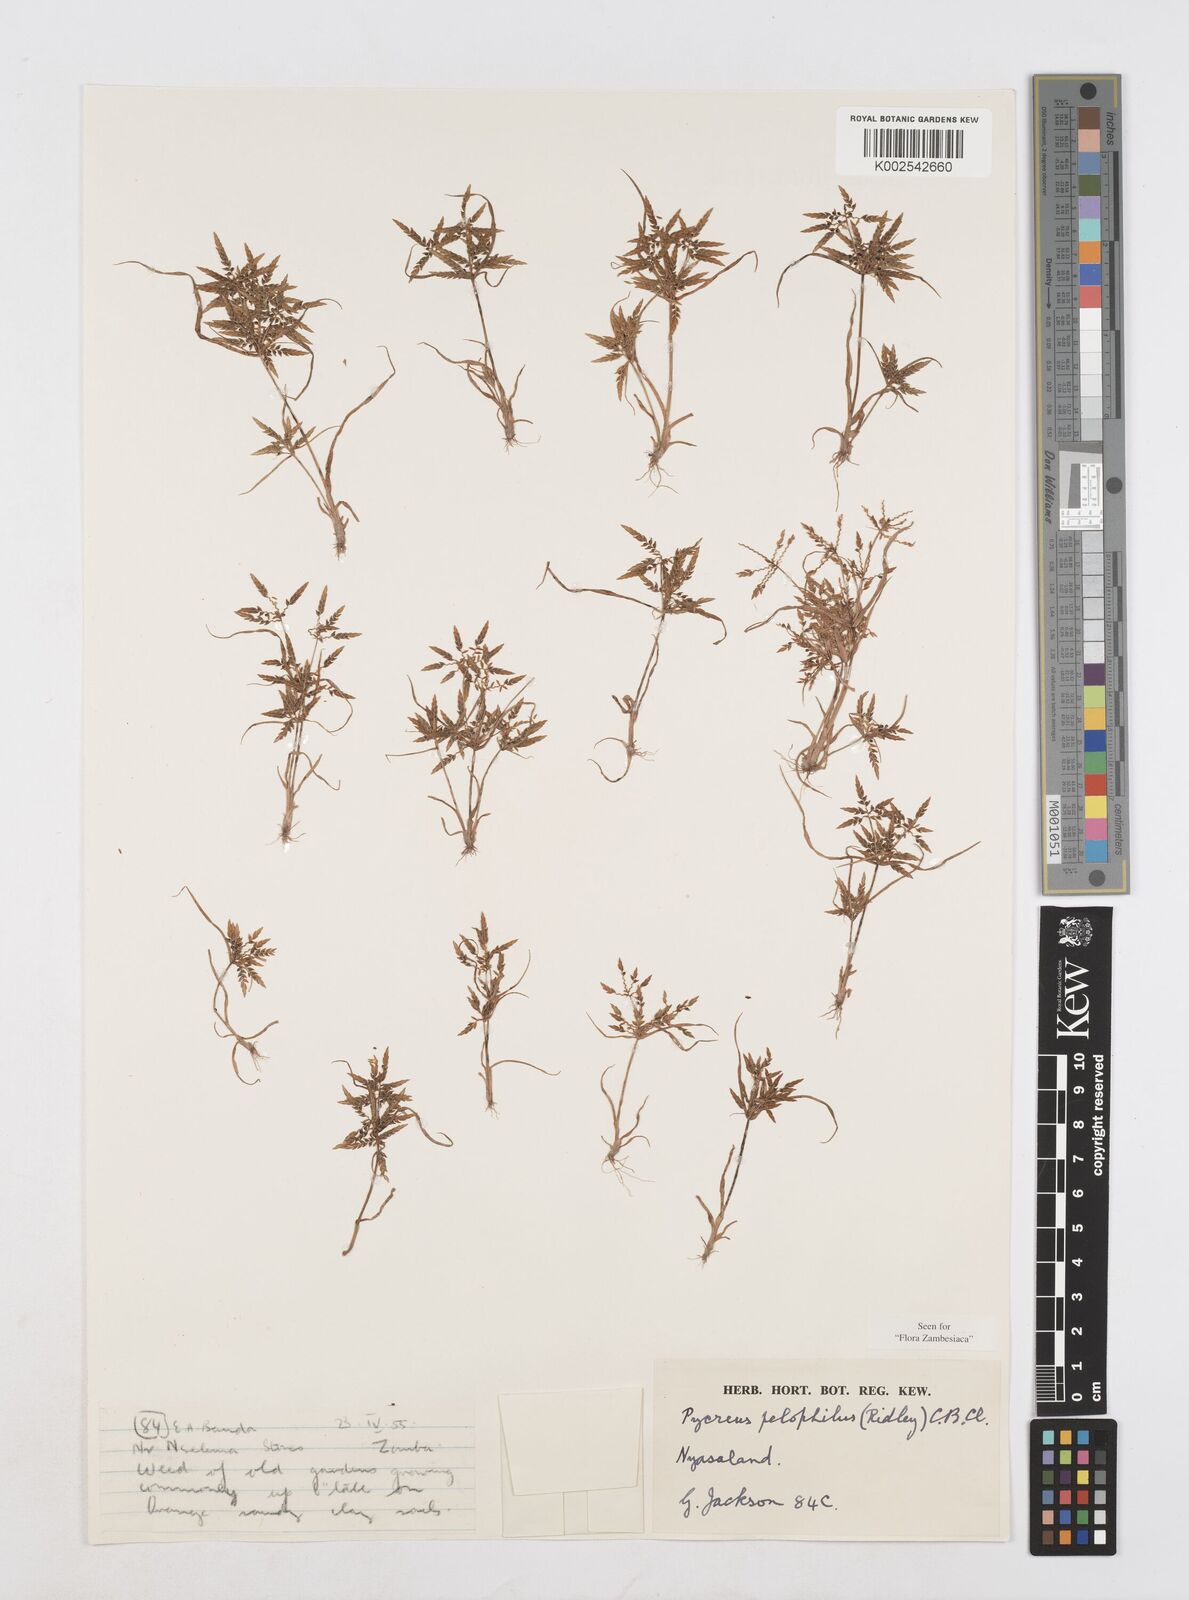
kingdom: Plantae
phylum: Tracheophyta
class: Liliopsida
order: Poales
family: Cyperaceae
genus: Cyperus
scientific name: Cyperus pelophilus
